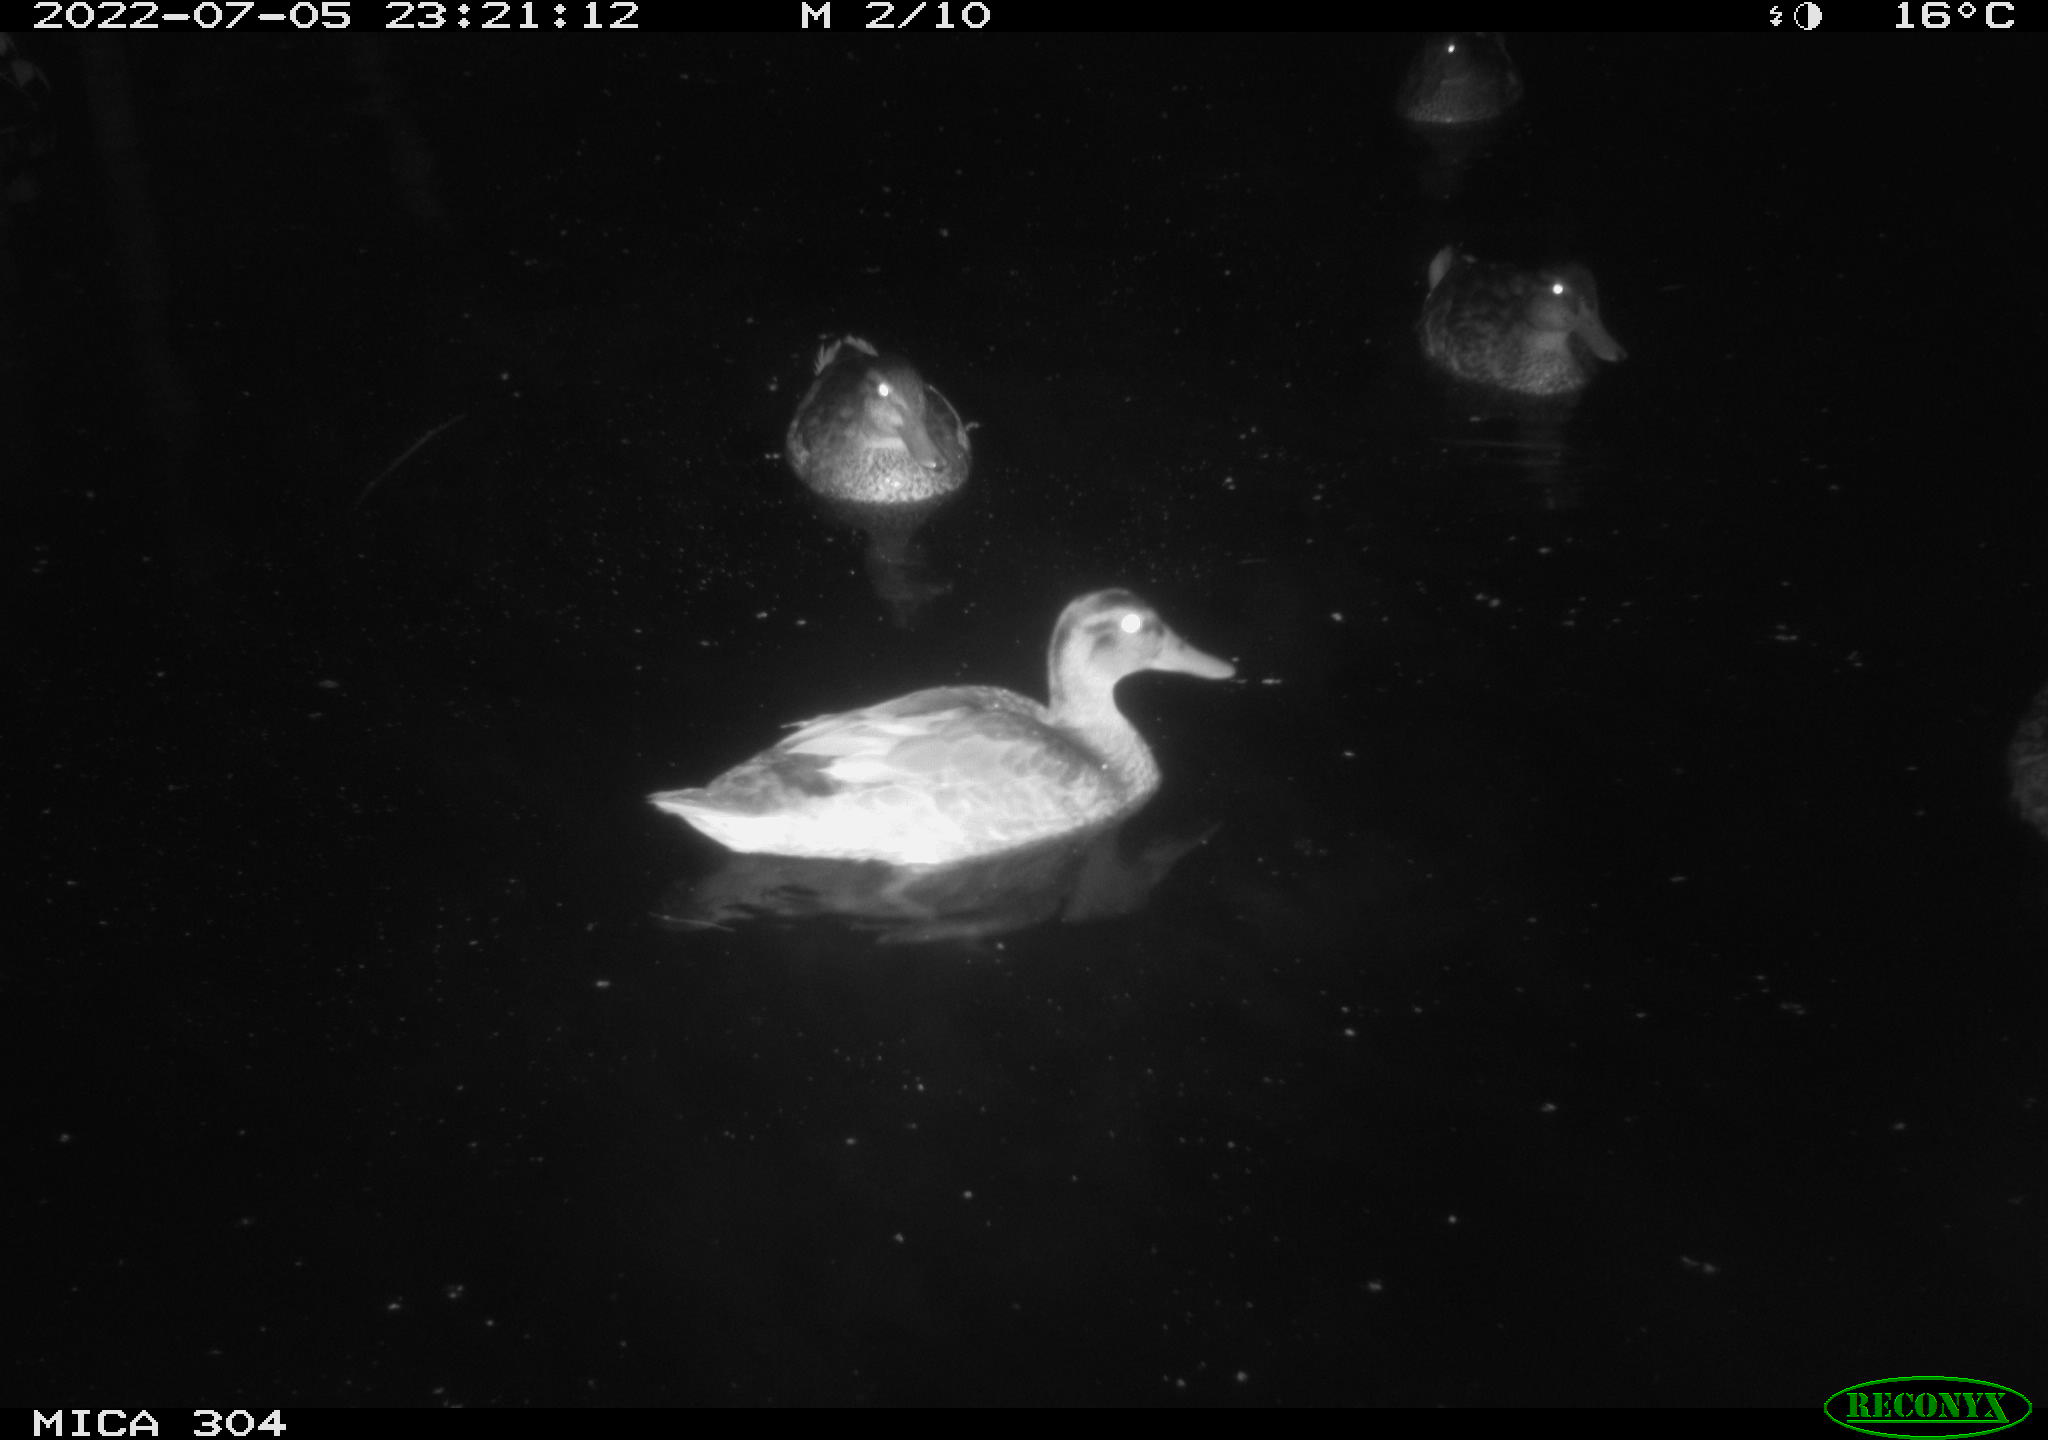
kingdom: Animalia
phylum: Chordata
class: Aves
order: Anseriformes
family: Anatidae
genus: Mareca
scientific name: Mareca strepera
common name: Gadwall
